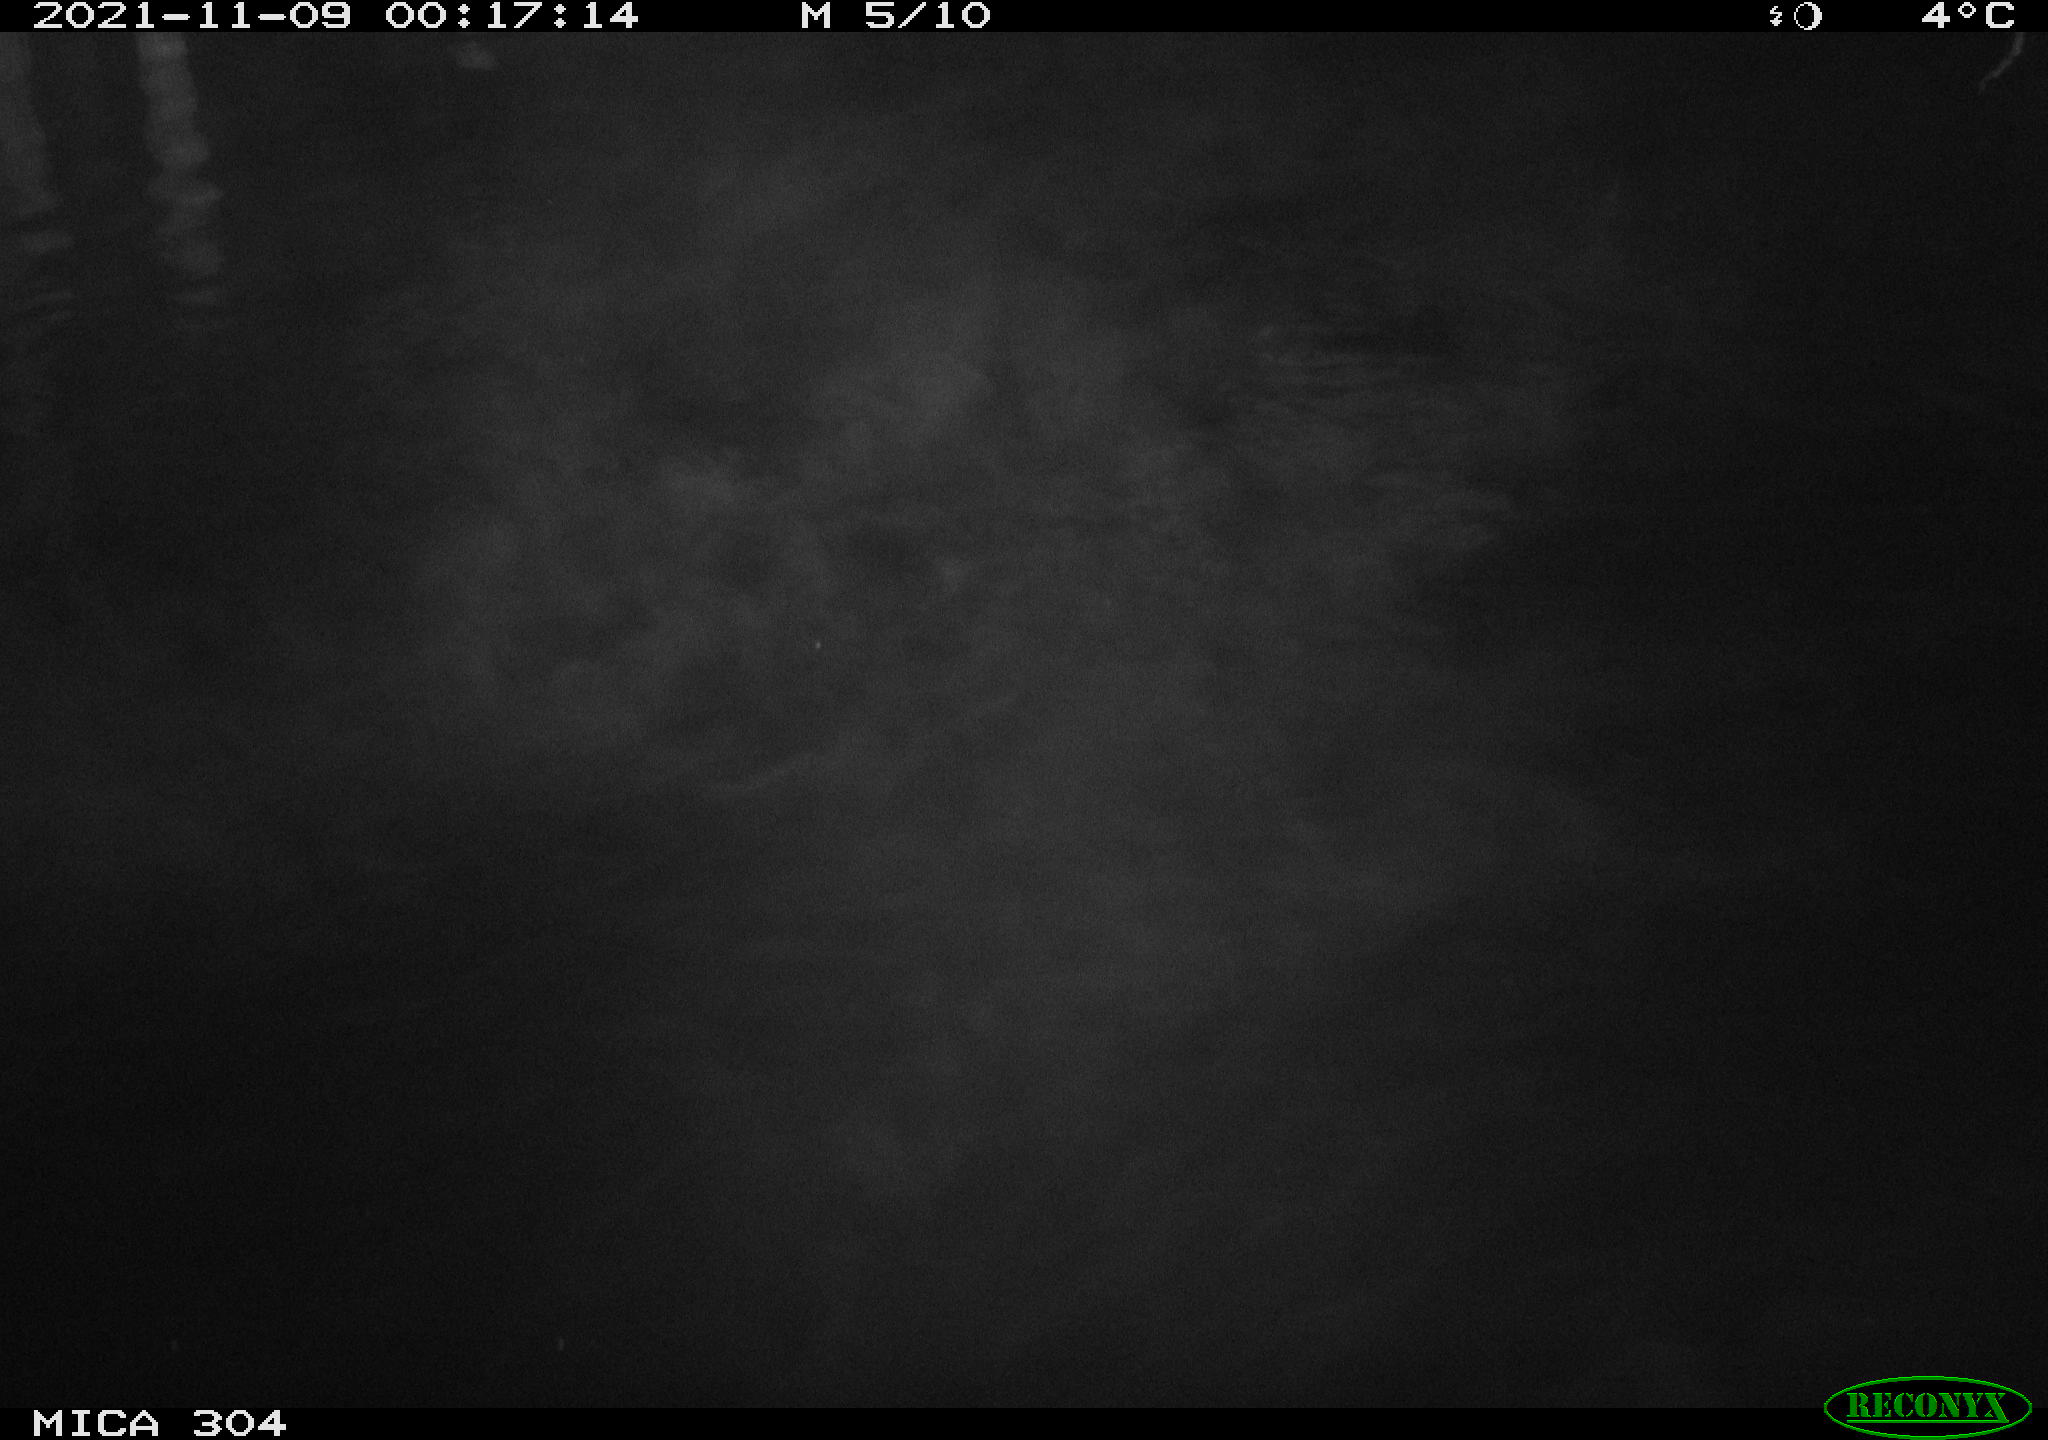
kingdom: Animalia
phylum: Chordata
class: Mammalia
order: Rodentia
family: Muridae
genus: Rattus
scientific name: Rattus norvegicus
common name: Brown rat
